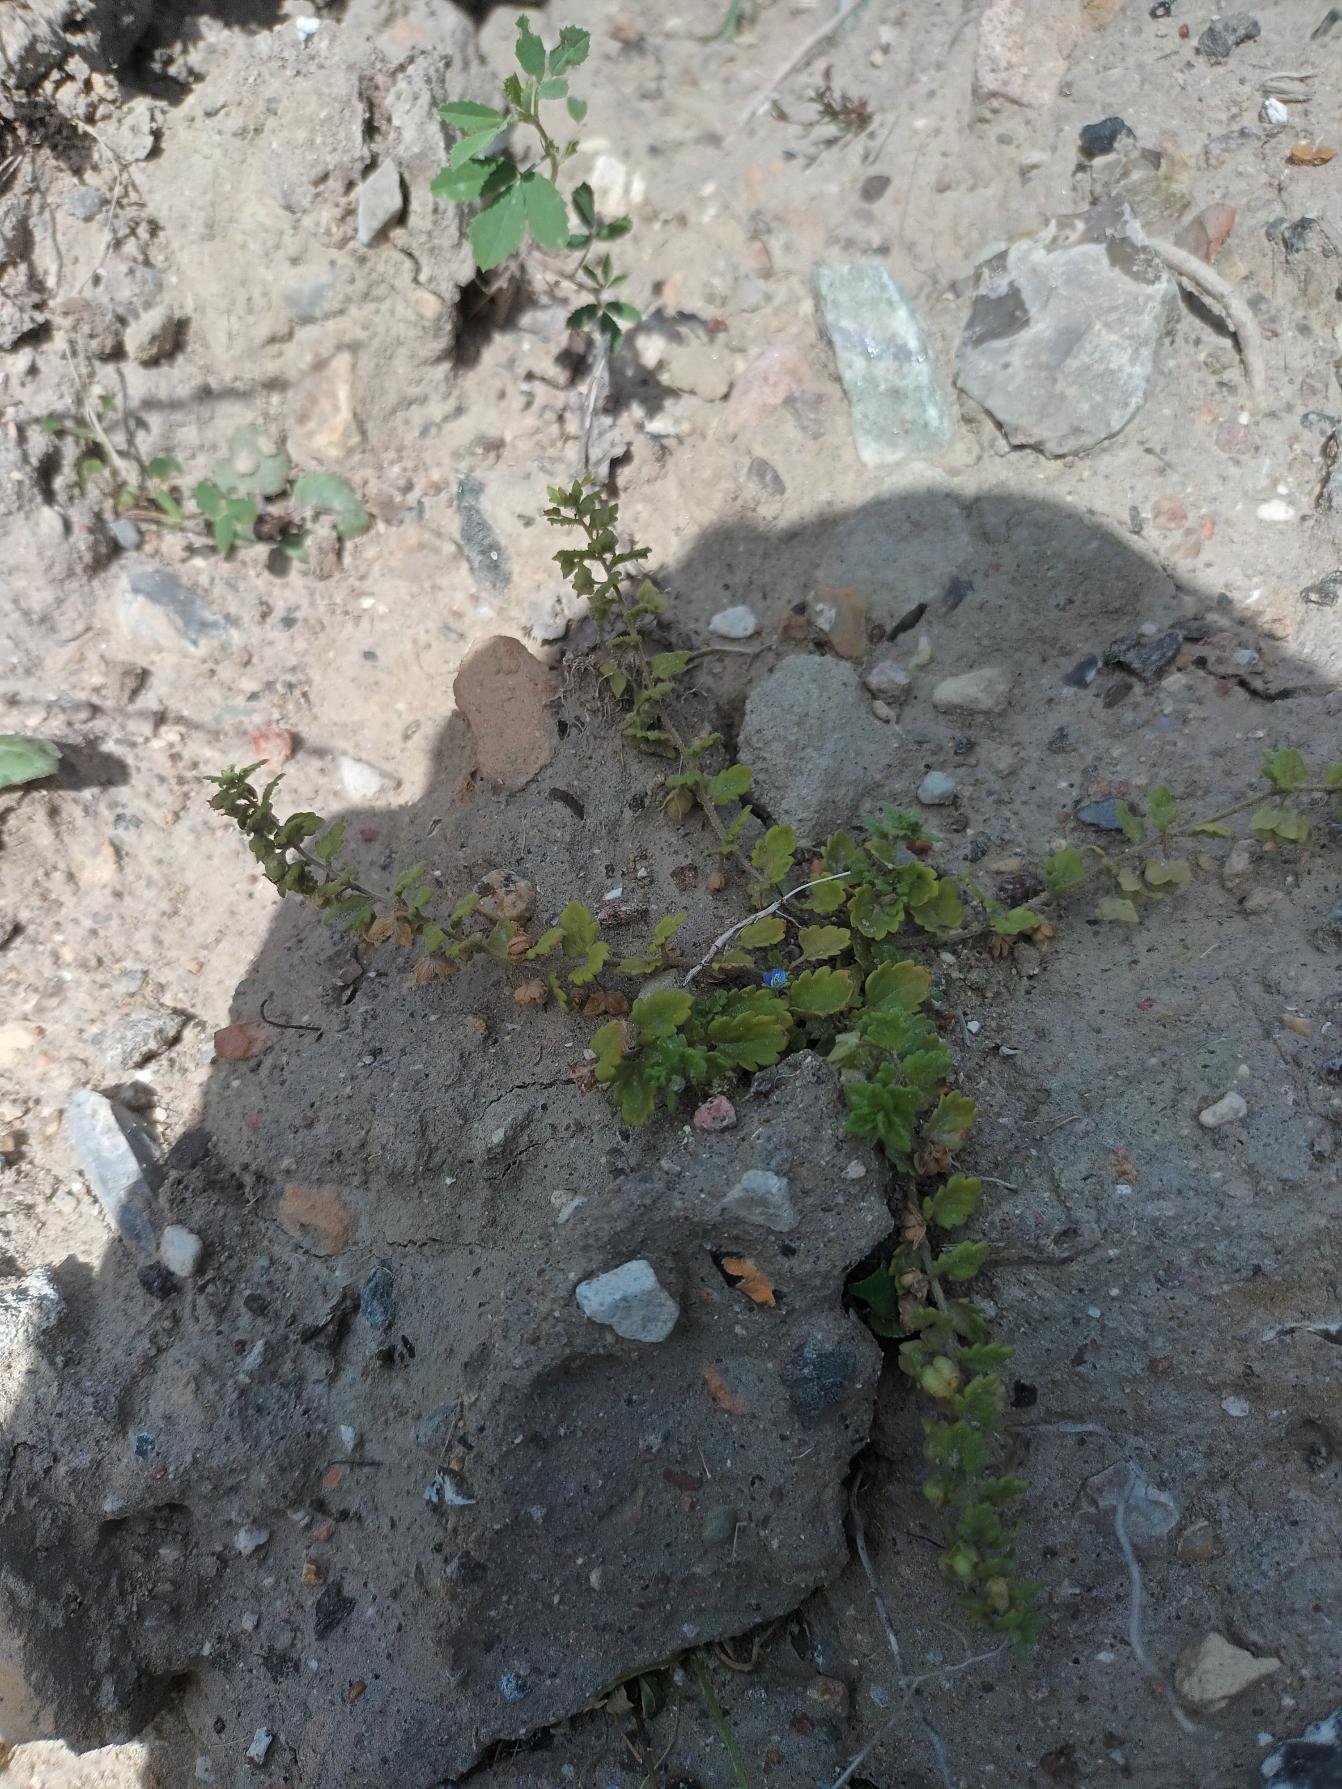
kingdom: Plantae
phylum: Tracheophyta
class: Magnoliopsida
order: Lamiales
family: Plantaginaceae
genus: Veronica
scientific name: Veronica polita
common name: Blank ærenpris
